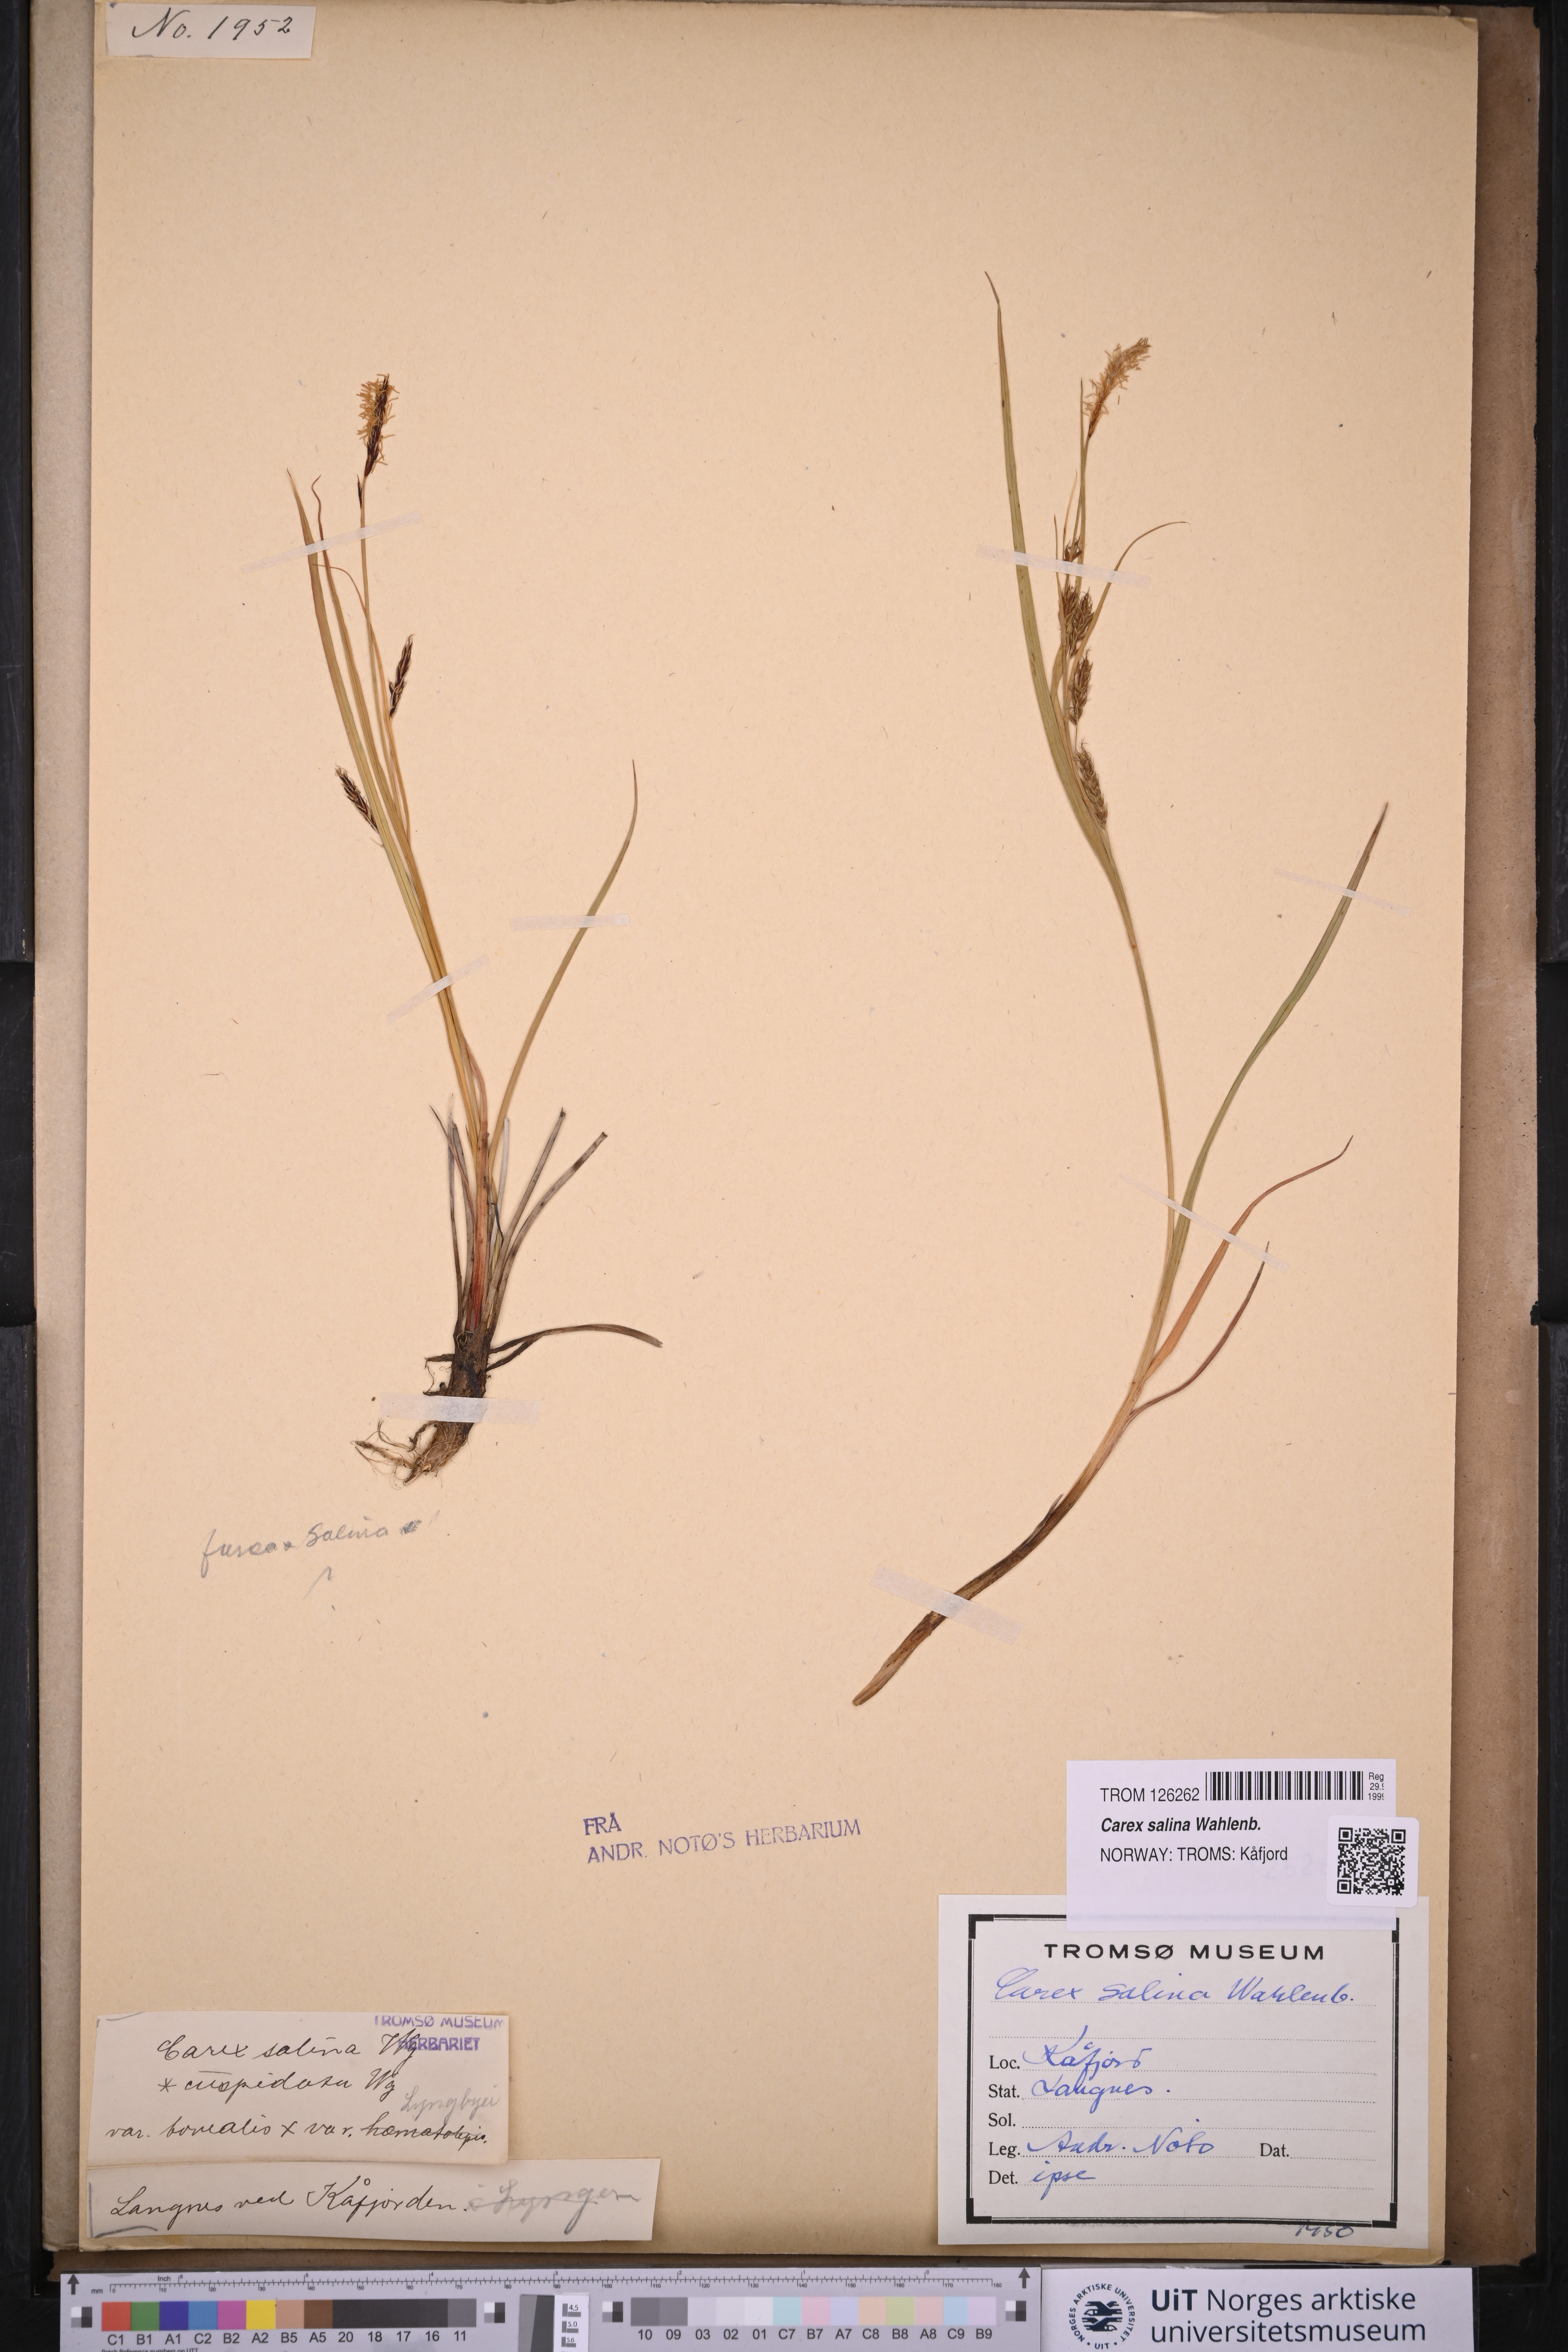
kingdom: Plantae
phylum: Tracheophyta
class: Liliopsida
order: Poales
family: Cyperaceae
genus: Carex
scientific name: Carex salina
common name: Saltmarsh sedge
